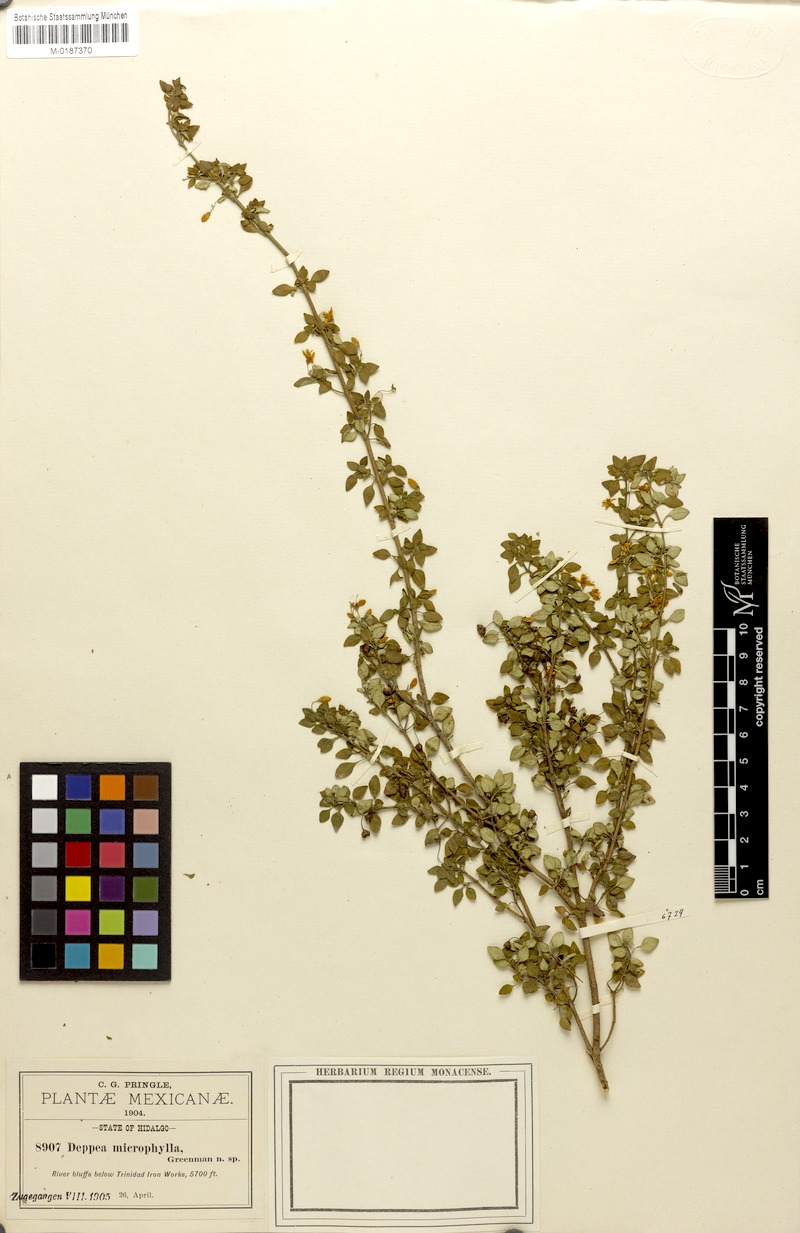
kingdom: Plantae
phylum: Tracheophyta
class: Magnoliopsida
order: Gentianales
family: Rubiaceae
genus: Deppea
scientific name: Deppea microphylla
